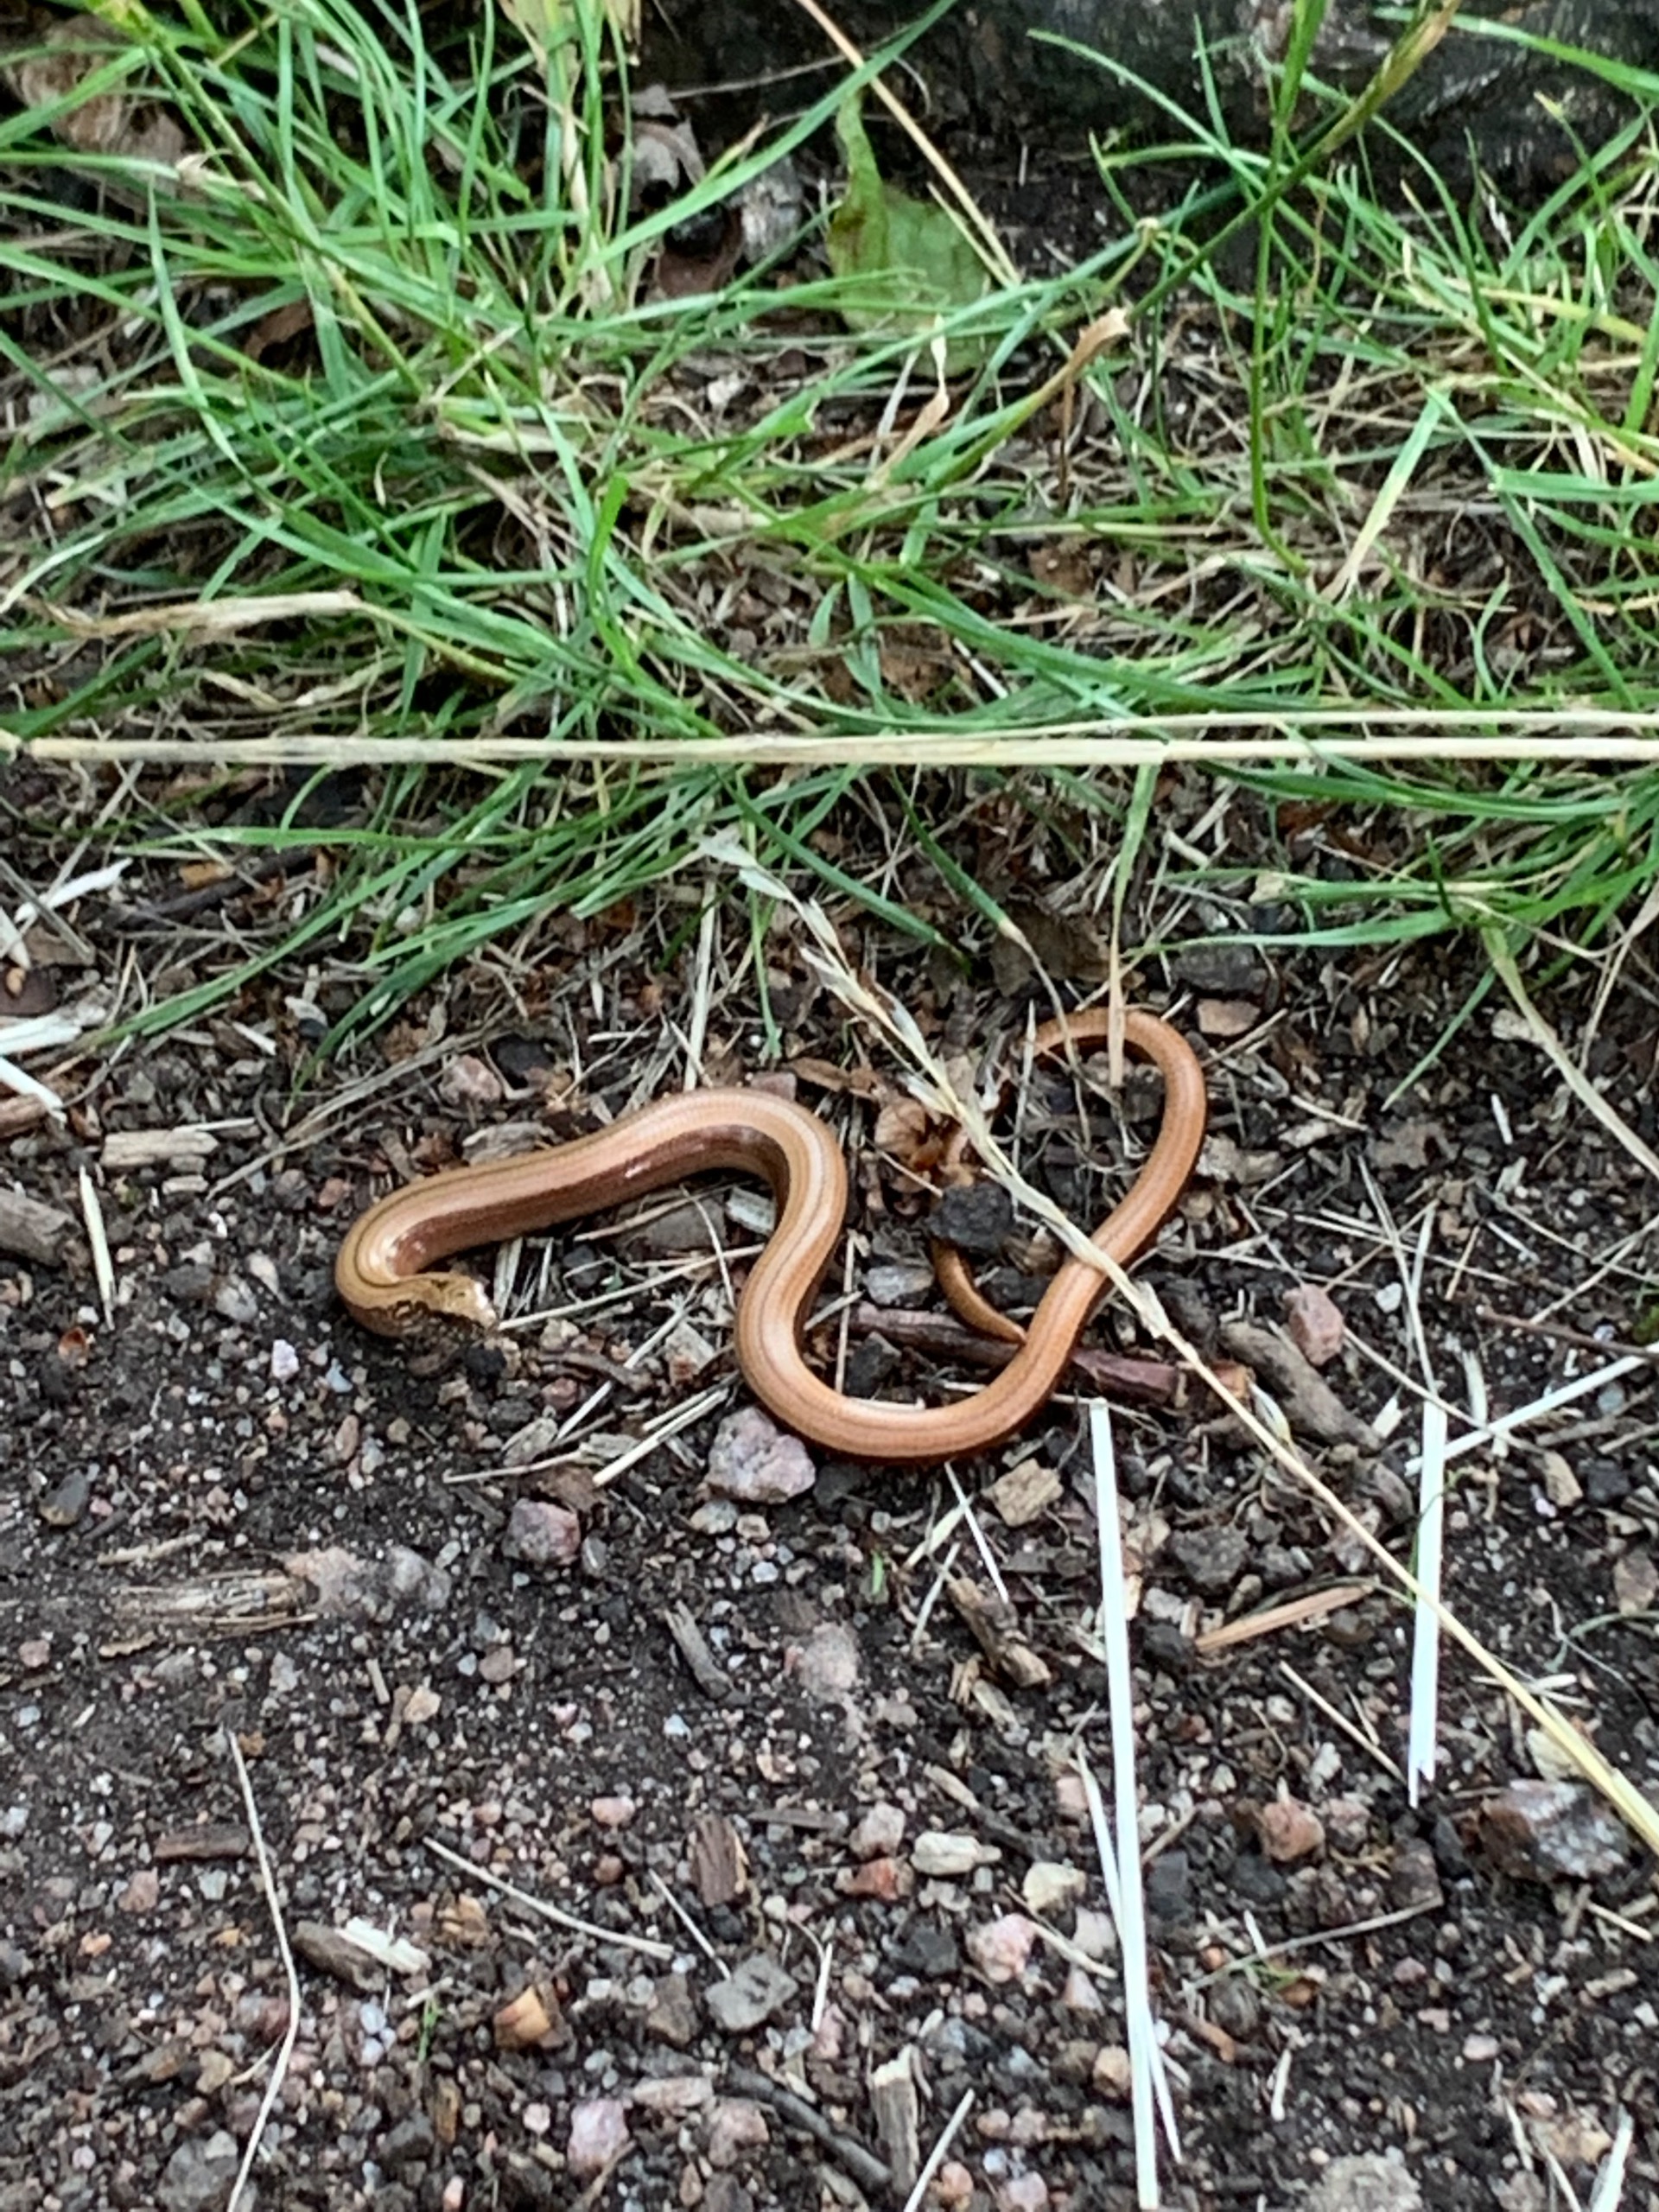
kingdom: Animalia
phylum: Chordata
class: Squamata
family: Anguidae
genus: Anguis
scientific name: Anguis fragilis
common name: Stålorm
